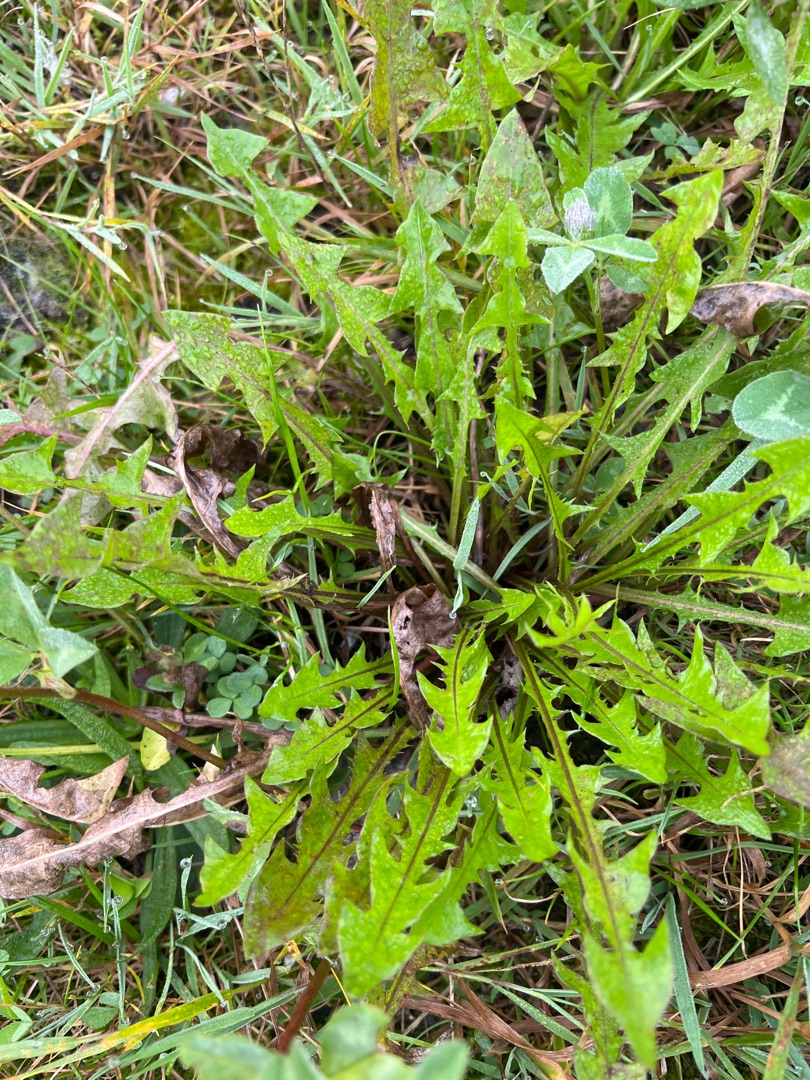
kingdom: Plantae
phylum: Tracheophyta
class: Magnoliopsida
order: Asterales
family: Asteraceae
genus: Taraxacum
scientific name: Taraxacum
